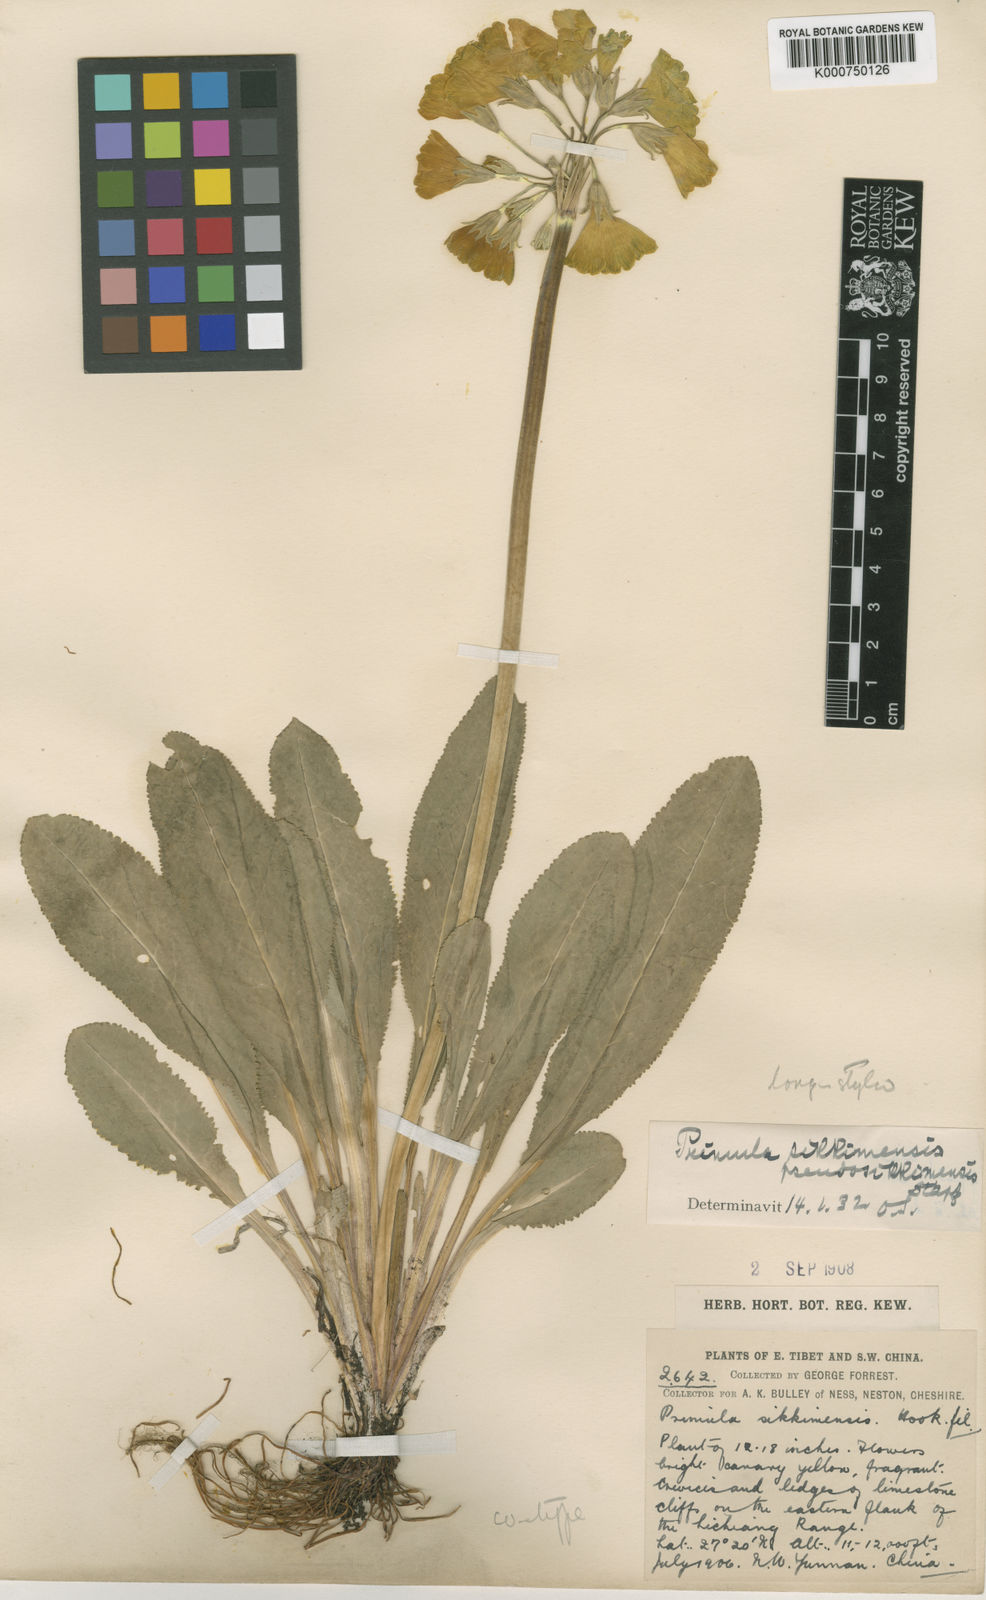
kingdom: Plantae
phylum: Tracheophyta
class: Magnoliopsida
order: Ericales
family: Primulaceae
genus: Primula
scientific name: Primula sikkimensis
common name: Sikkim cowslip
